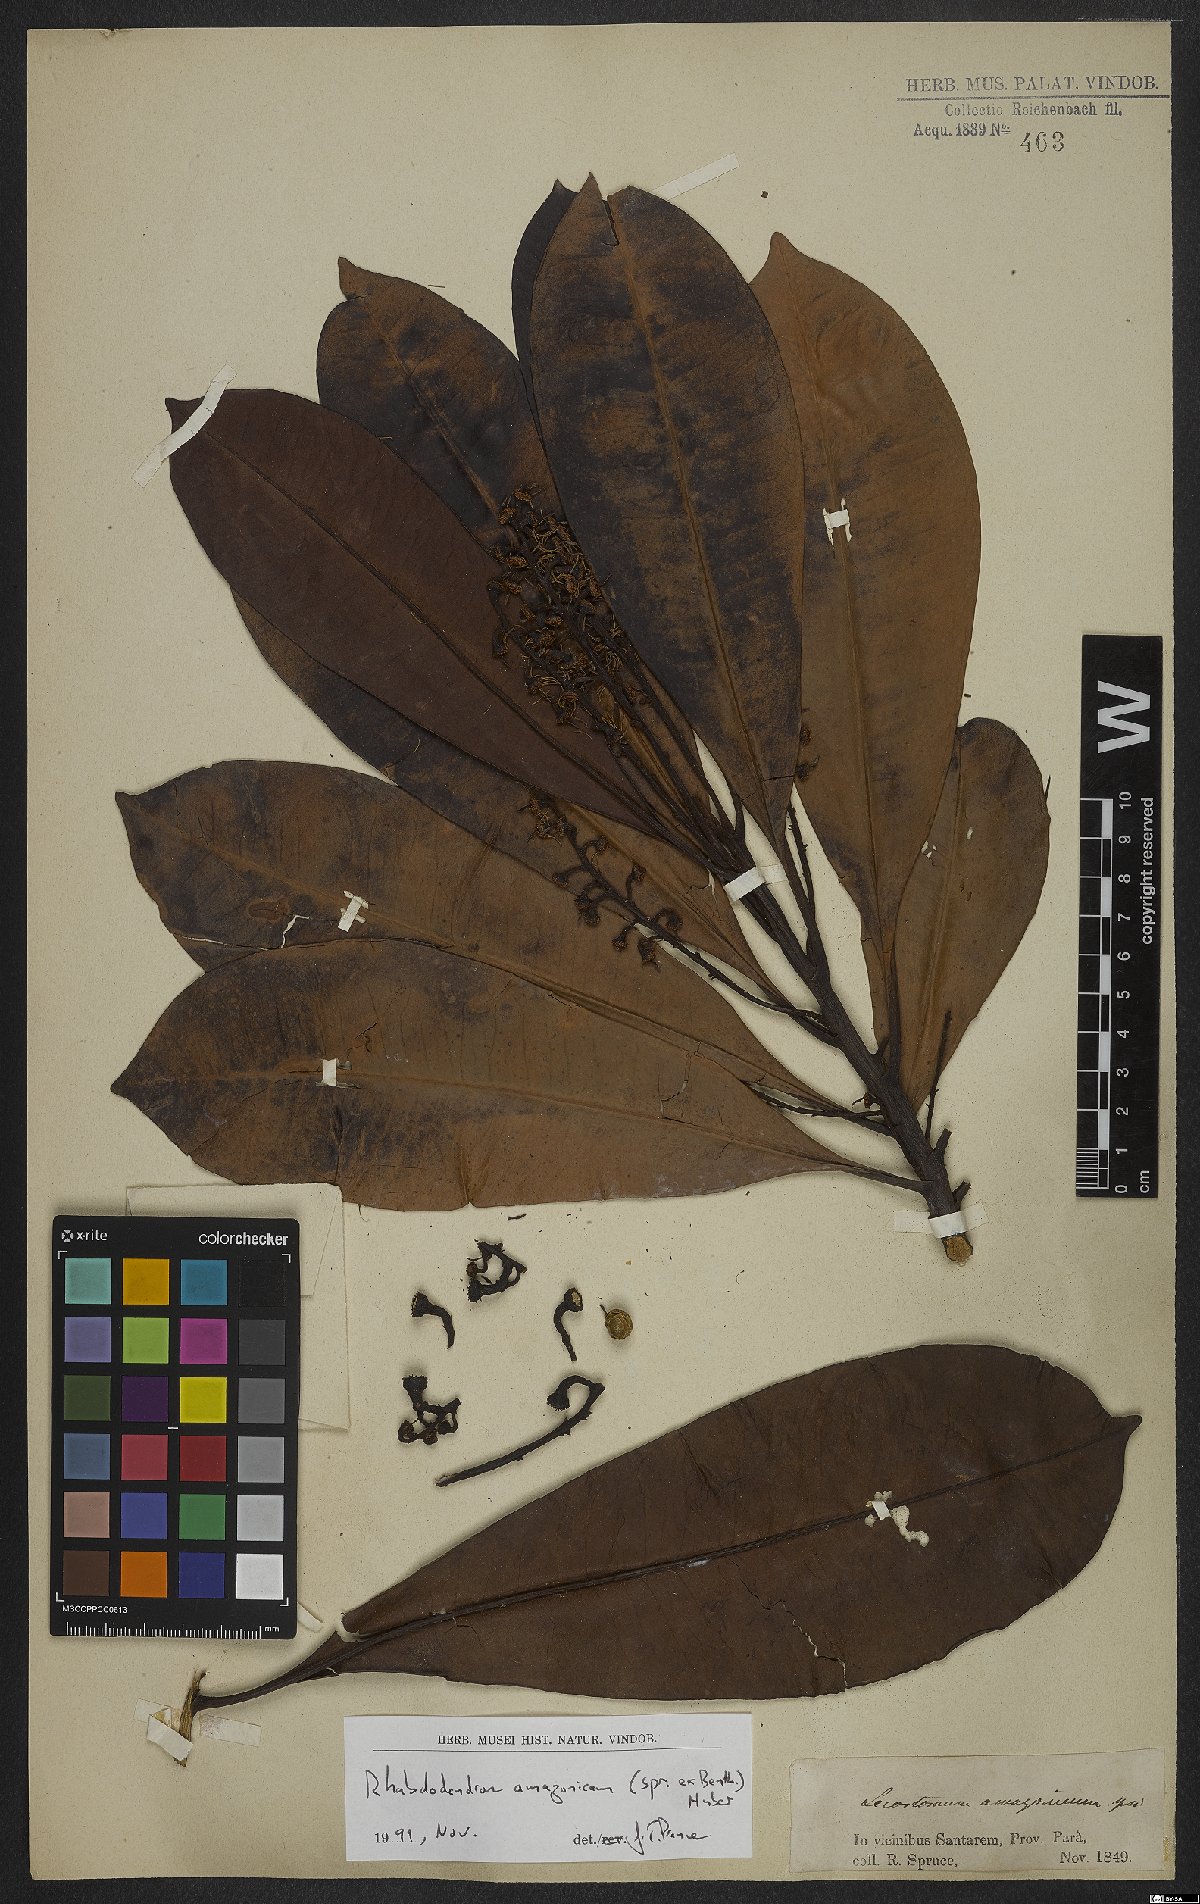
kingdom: Plantae
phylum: Tracheophyta
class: Magnoliopsida
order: Caryophyllales
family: Rhabdodendraceae
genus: Rhabdodendron
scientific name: Rhabdodendron amazonicum
